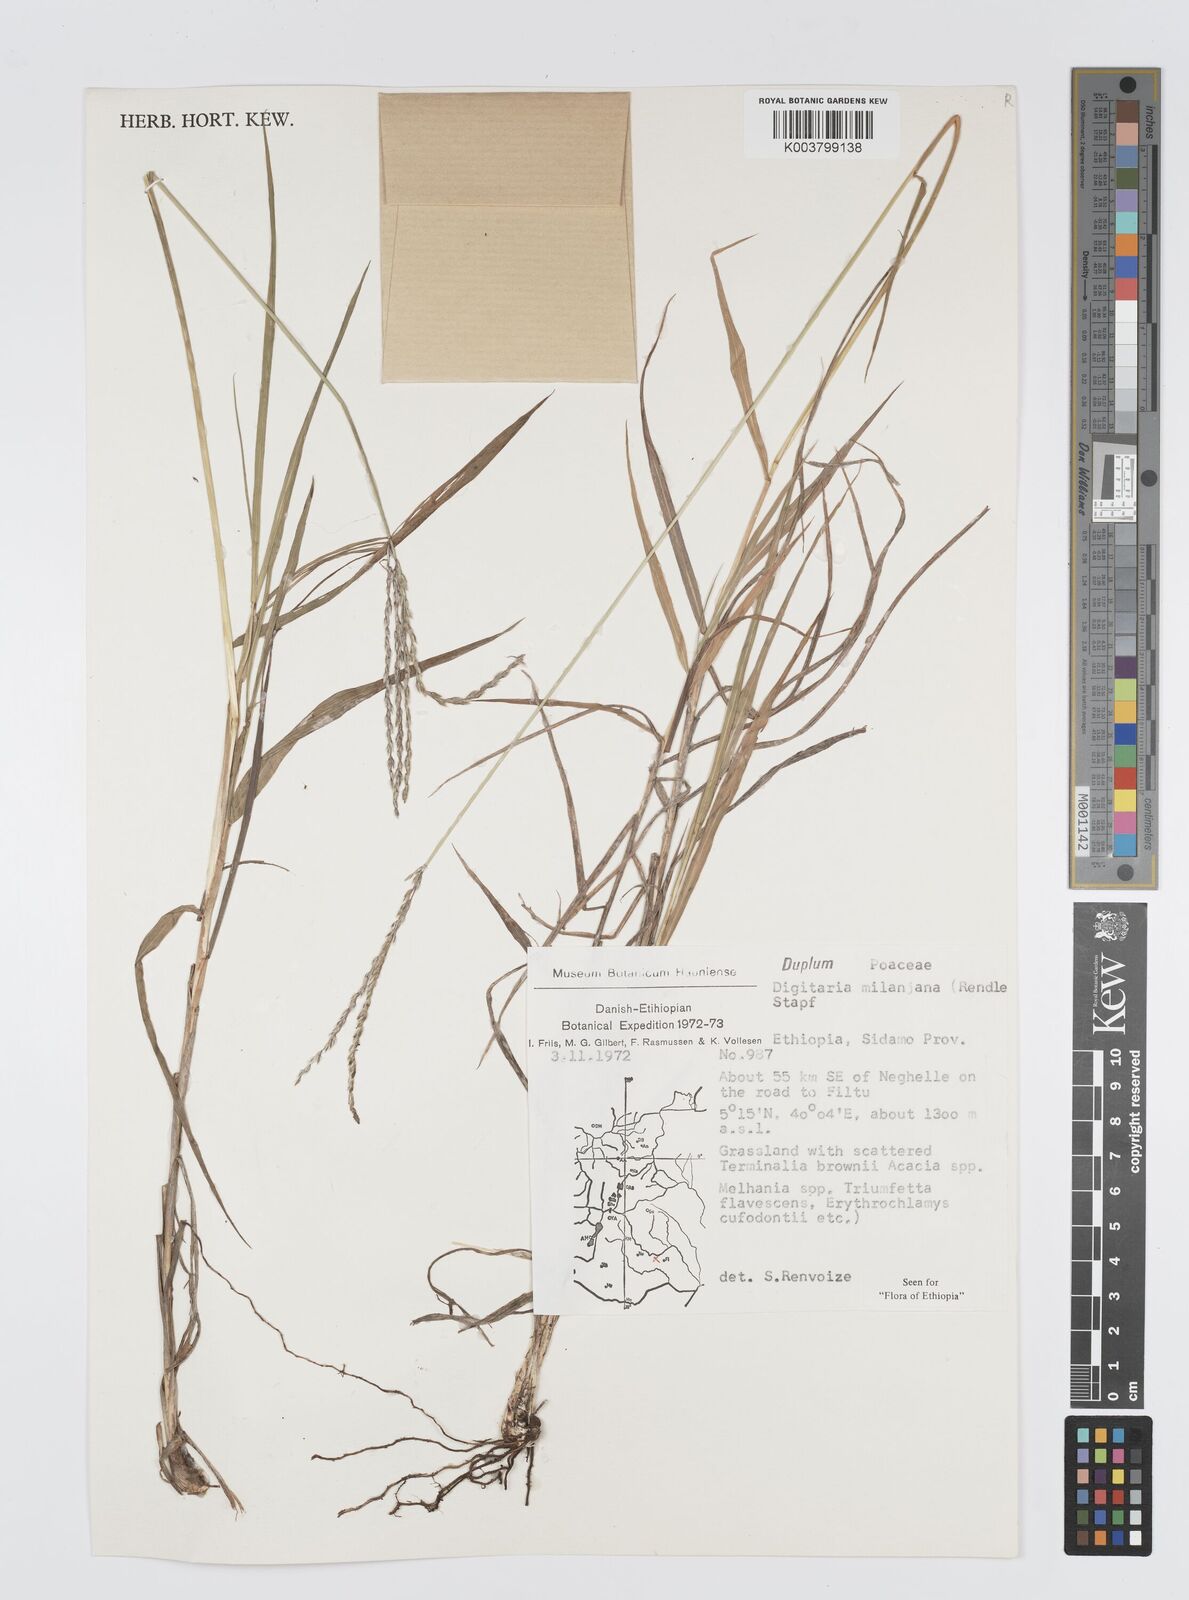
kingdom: Plantae
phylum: Tracheophyta
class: Liliopsida
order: Poales
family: Poaceae
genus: Digitaria
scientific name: Digitaria milanjiana
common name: Madagascar crabgrass
